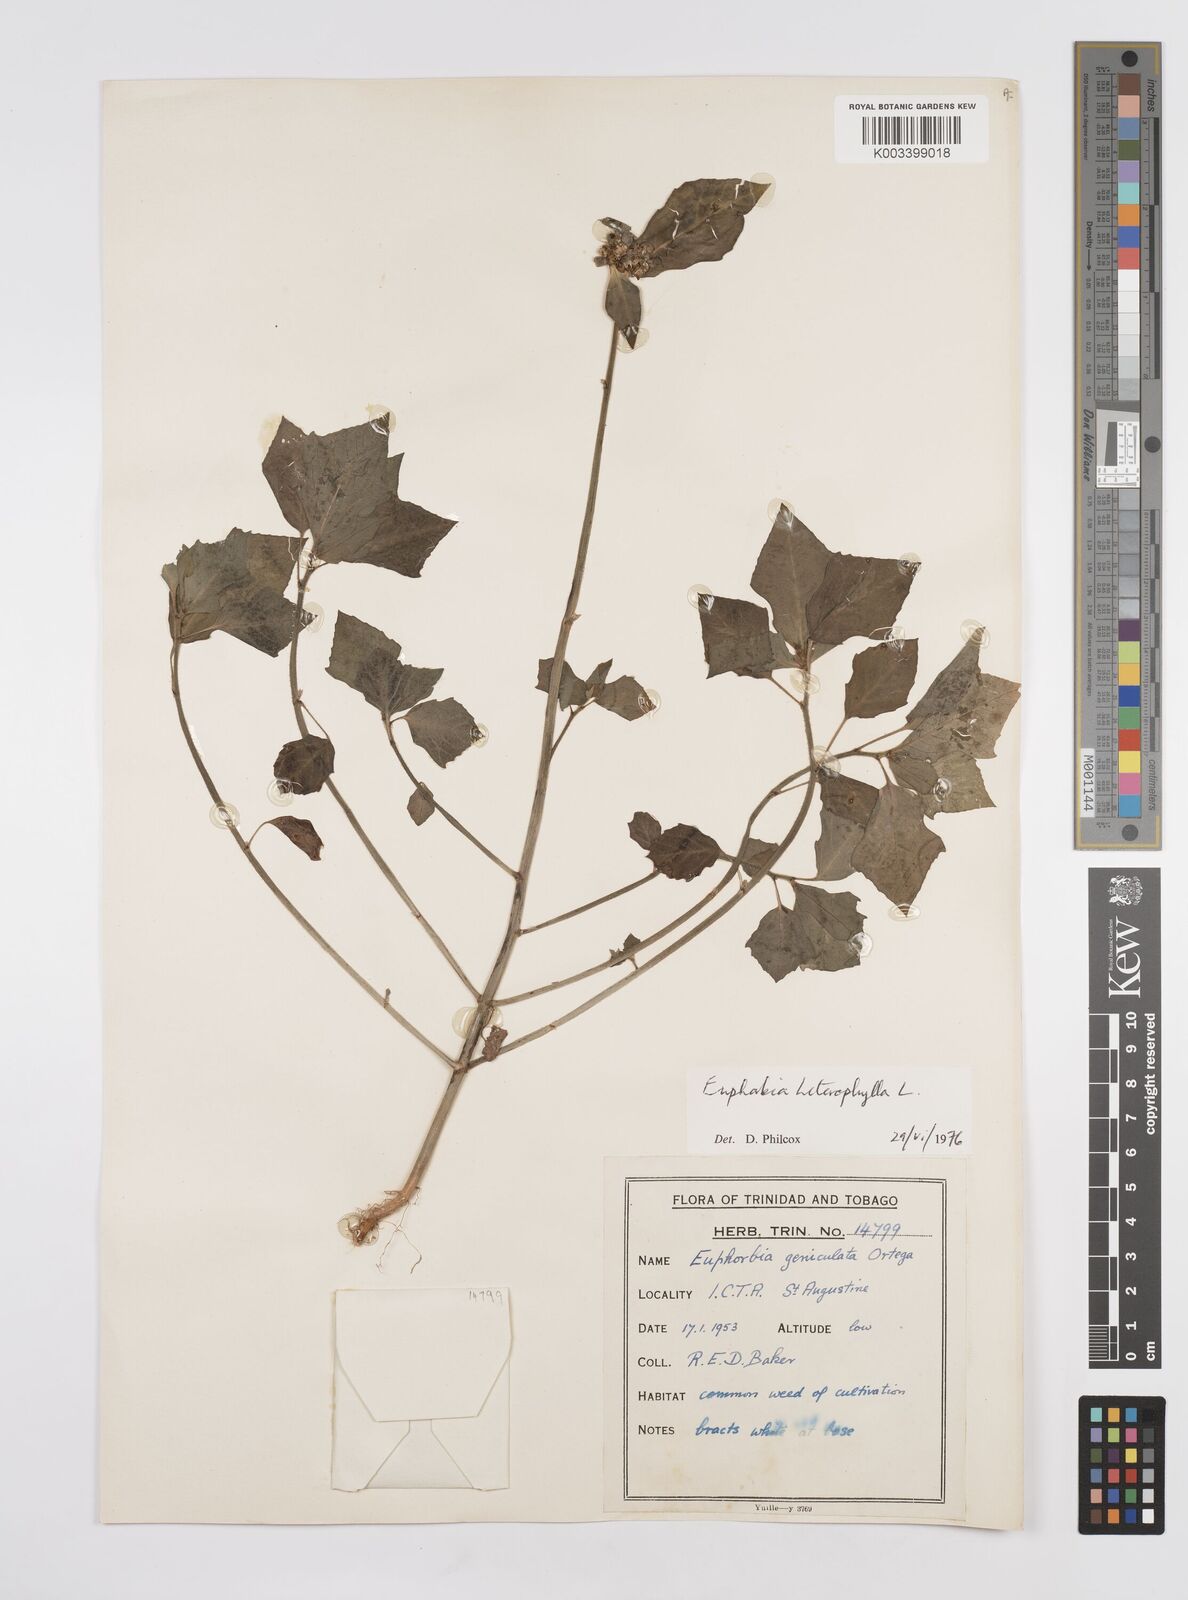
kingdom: Plantae
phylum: Tracheophyta
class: Magnoliopsida
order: Malpighiales
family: Euphorbiaceae
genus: Euphorbia
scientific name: Euphorbia heterophylla
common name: Mexican fireplant
